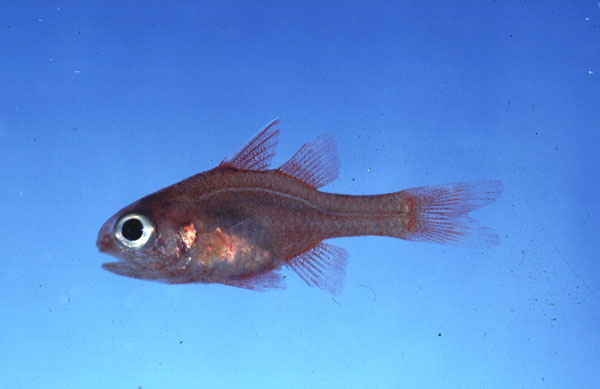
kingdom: Animalia
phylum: Chordata
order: Perciformes
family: Apogonidae
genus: Apogon
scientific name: Apogon coccineus
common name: Ruby cardinalfish
